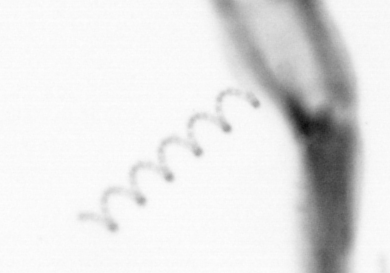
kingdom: Chromista
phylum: Ochrophyta
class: Bacillariophyceae
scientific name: Bacillariophyceae
